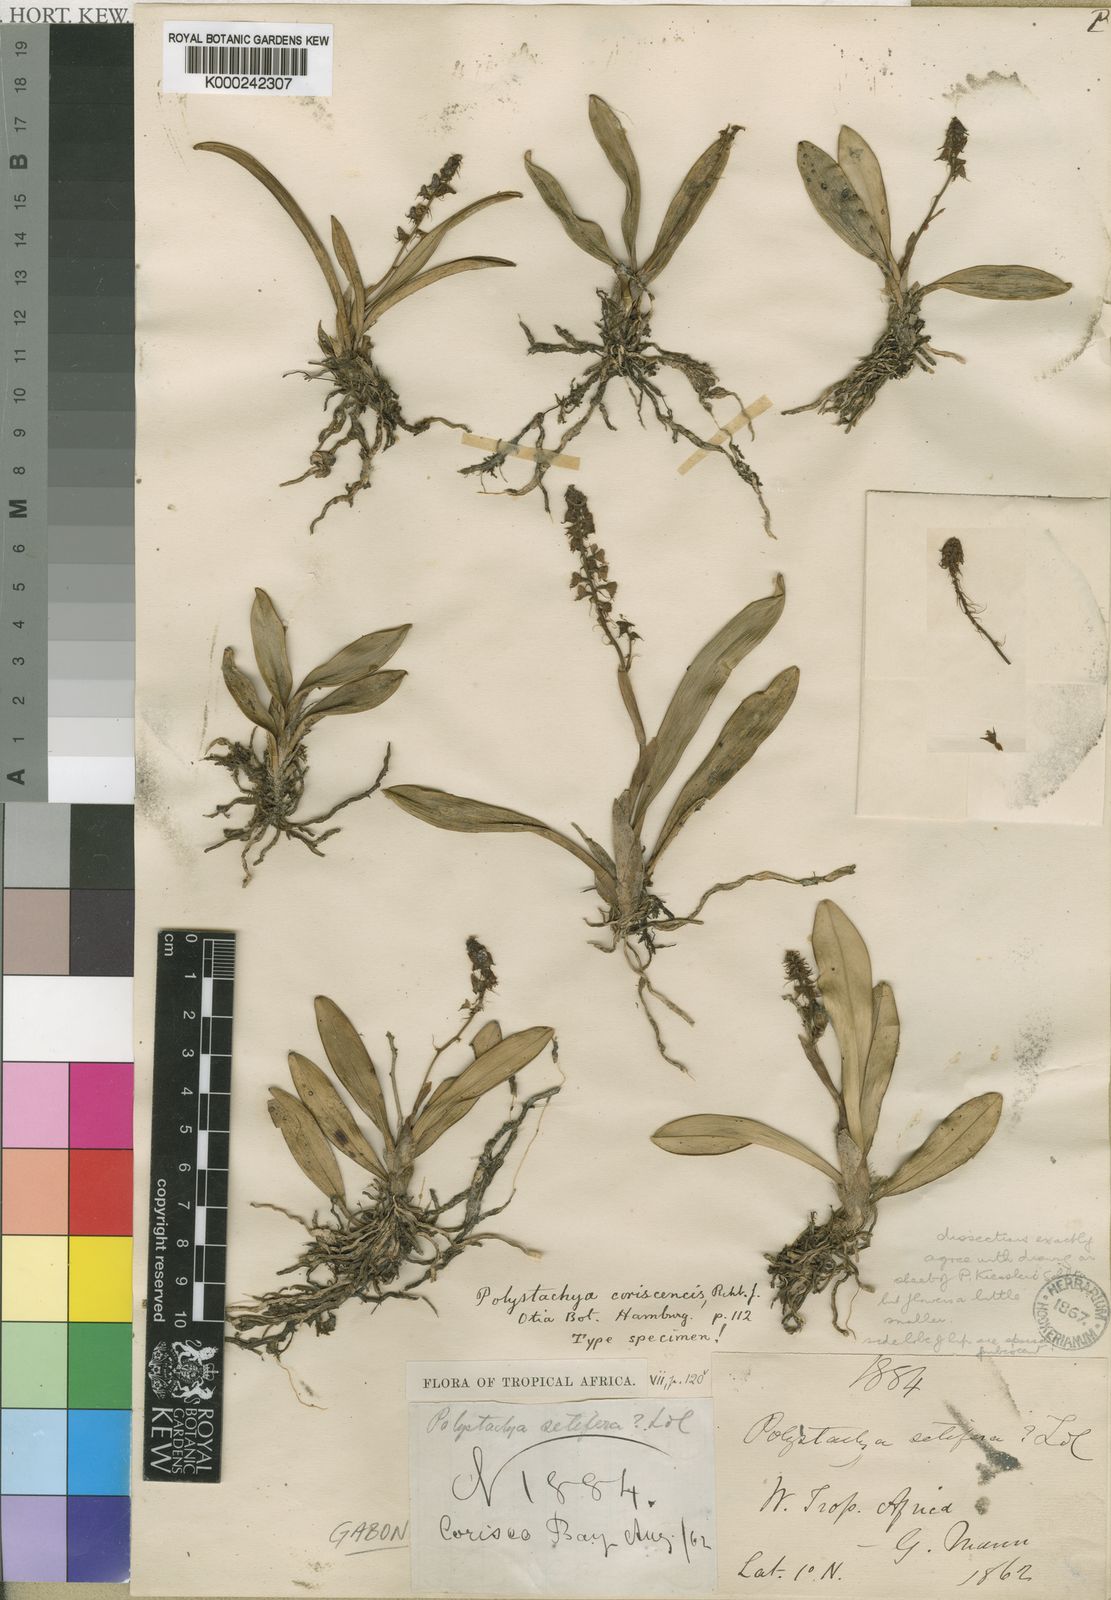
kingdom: Plantae
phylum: Tracheophyta
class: Liliopsida
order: Asparagales
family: Orchidaceae
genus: Polystachya
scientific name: Polystachya coriscensis
